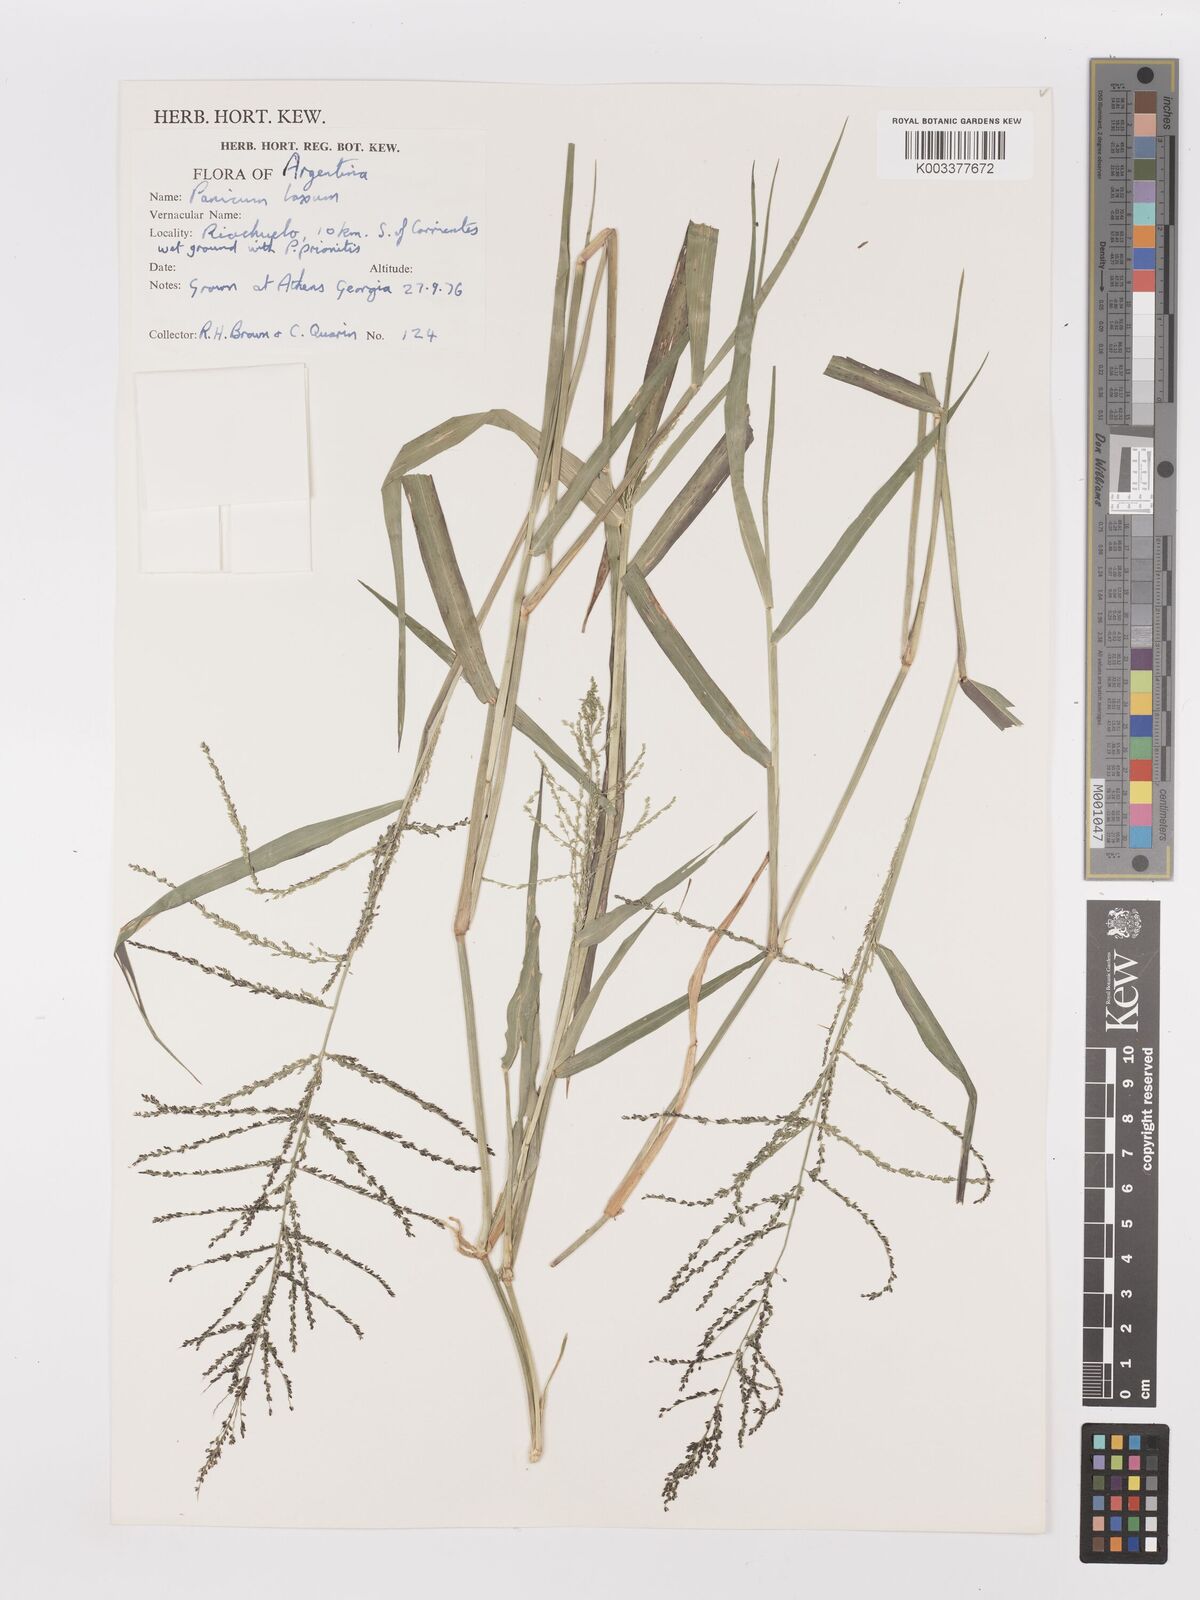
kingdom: Plantae
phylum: Tracheophyta
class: Liliopsida
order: Poales
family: Poaceae
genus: Steinchisma
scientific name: Steinchisma laxum
